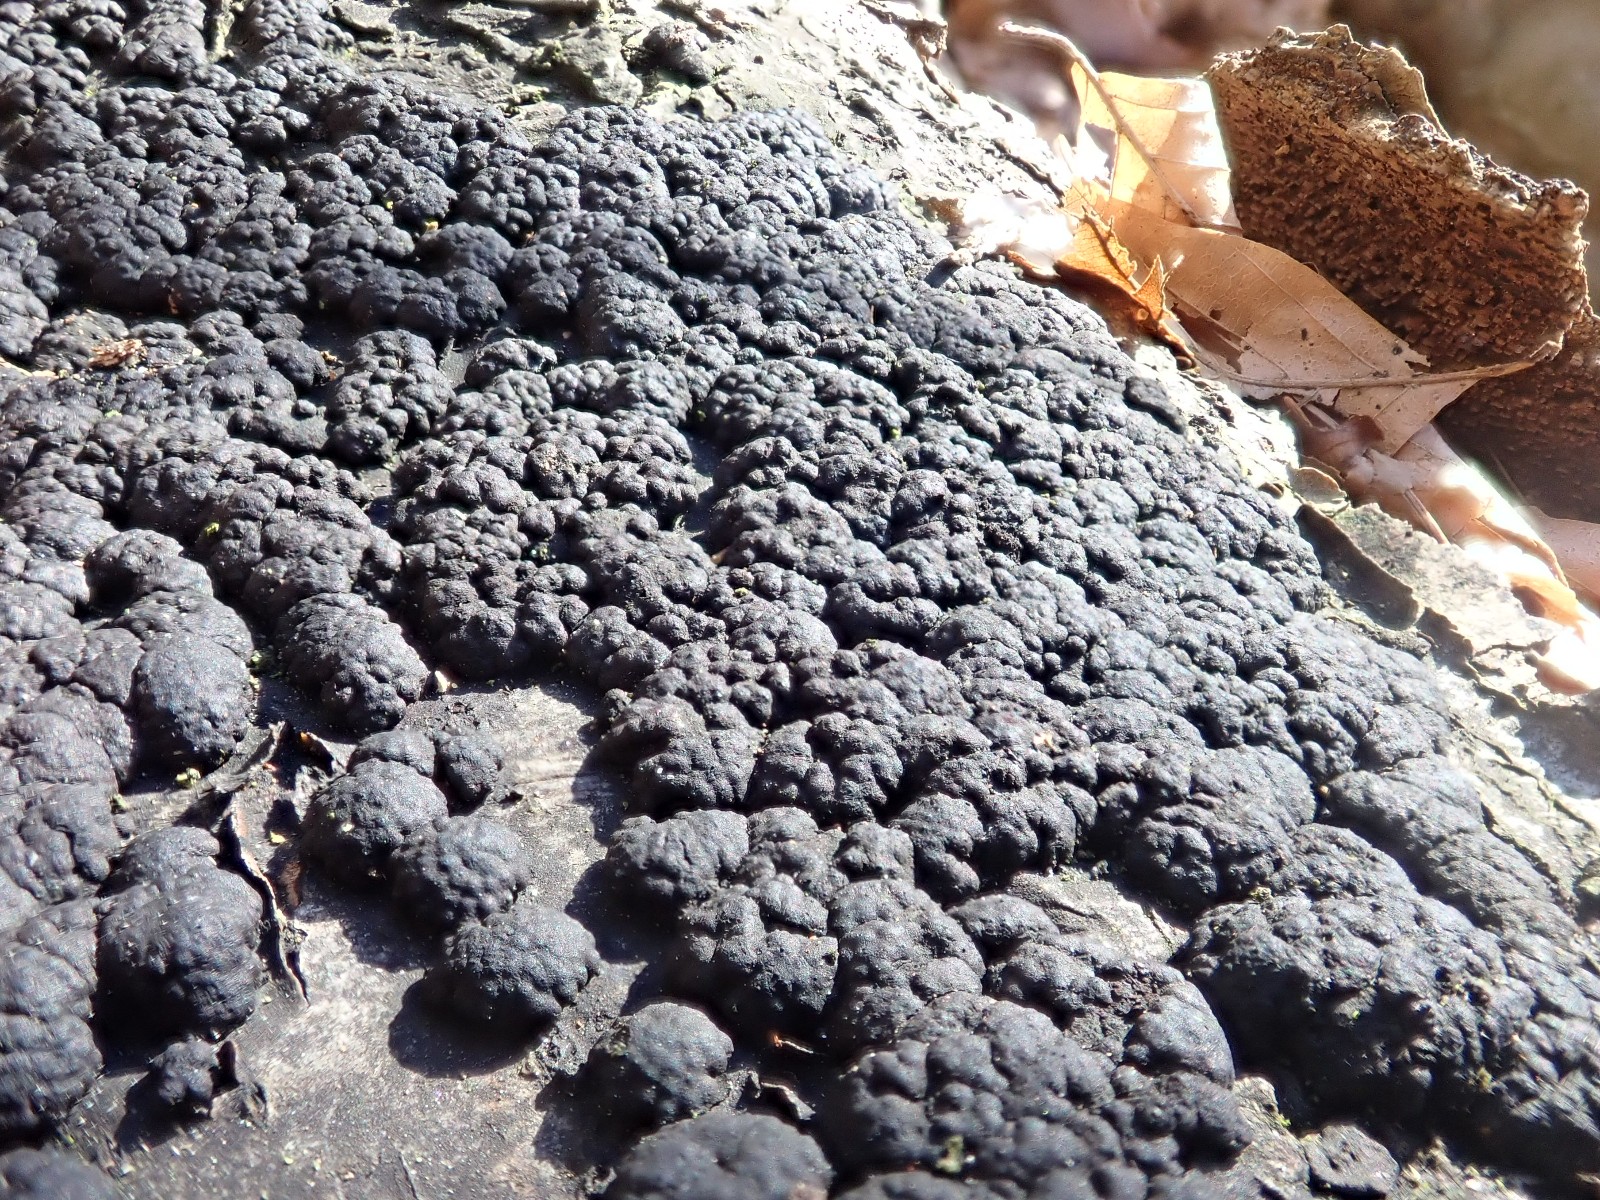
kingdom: Fungi
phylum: Ascomycota
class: Sordariomycetes
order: Xylariales
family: Hypoxylaceae
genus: Jackrogersella
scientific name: Jackrogersella cohaerens
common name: sammenflydende kulbær
